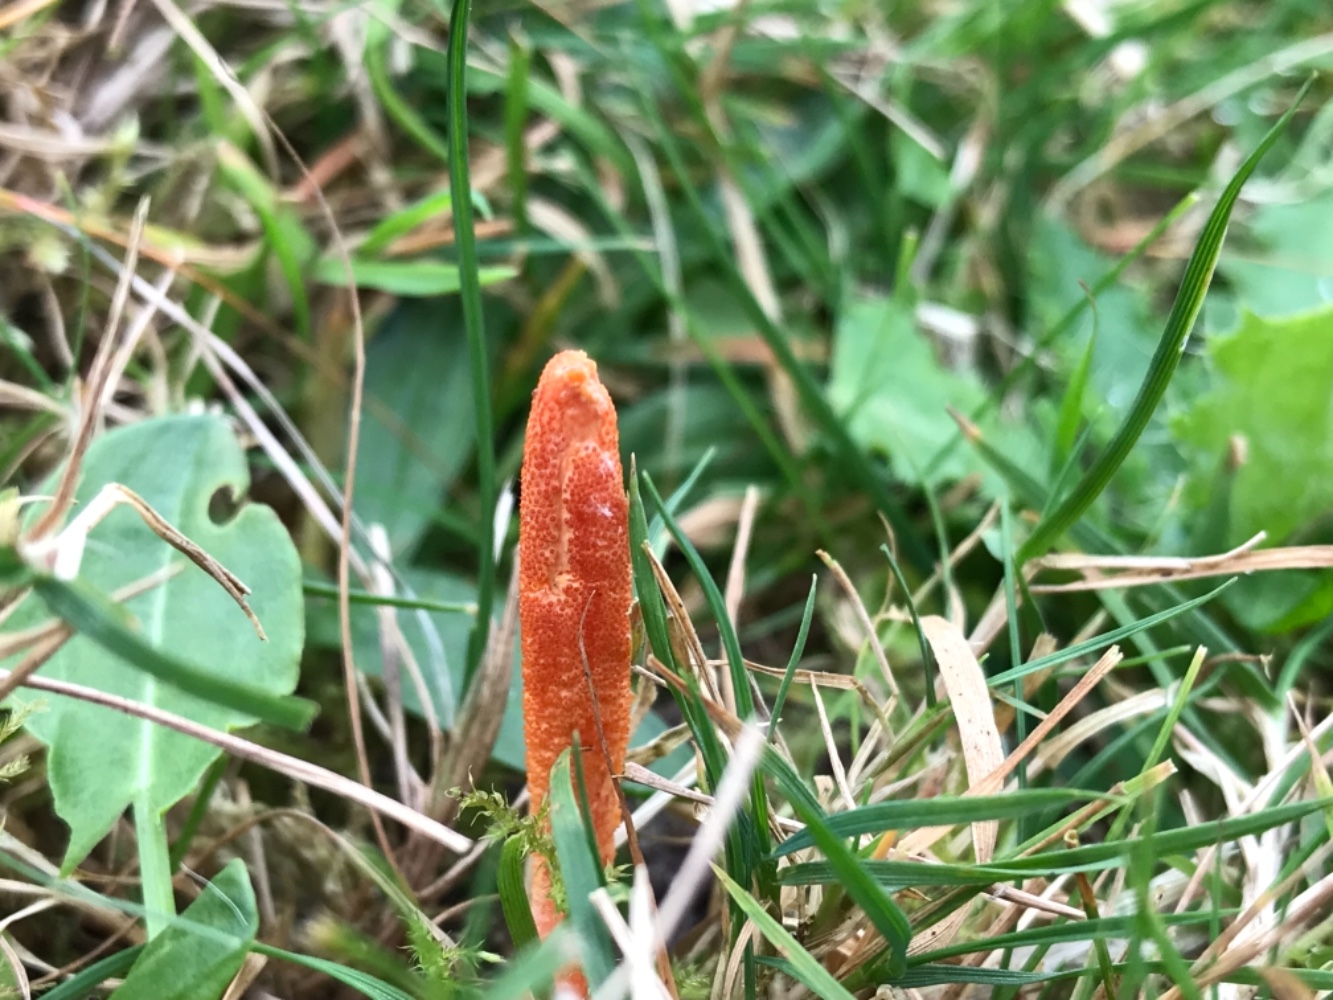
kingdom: Fungi
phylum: Ascomycota
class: Sordariomycetes
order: Hypocreales
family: Cordycipitaceae
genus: Cordyceps
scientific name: Cordyceps militaris
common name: puppe-snyltekølle
